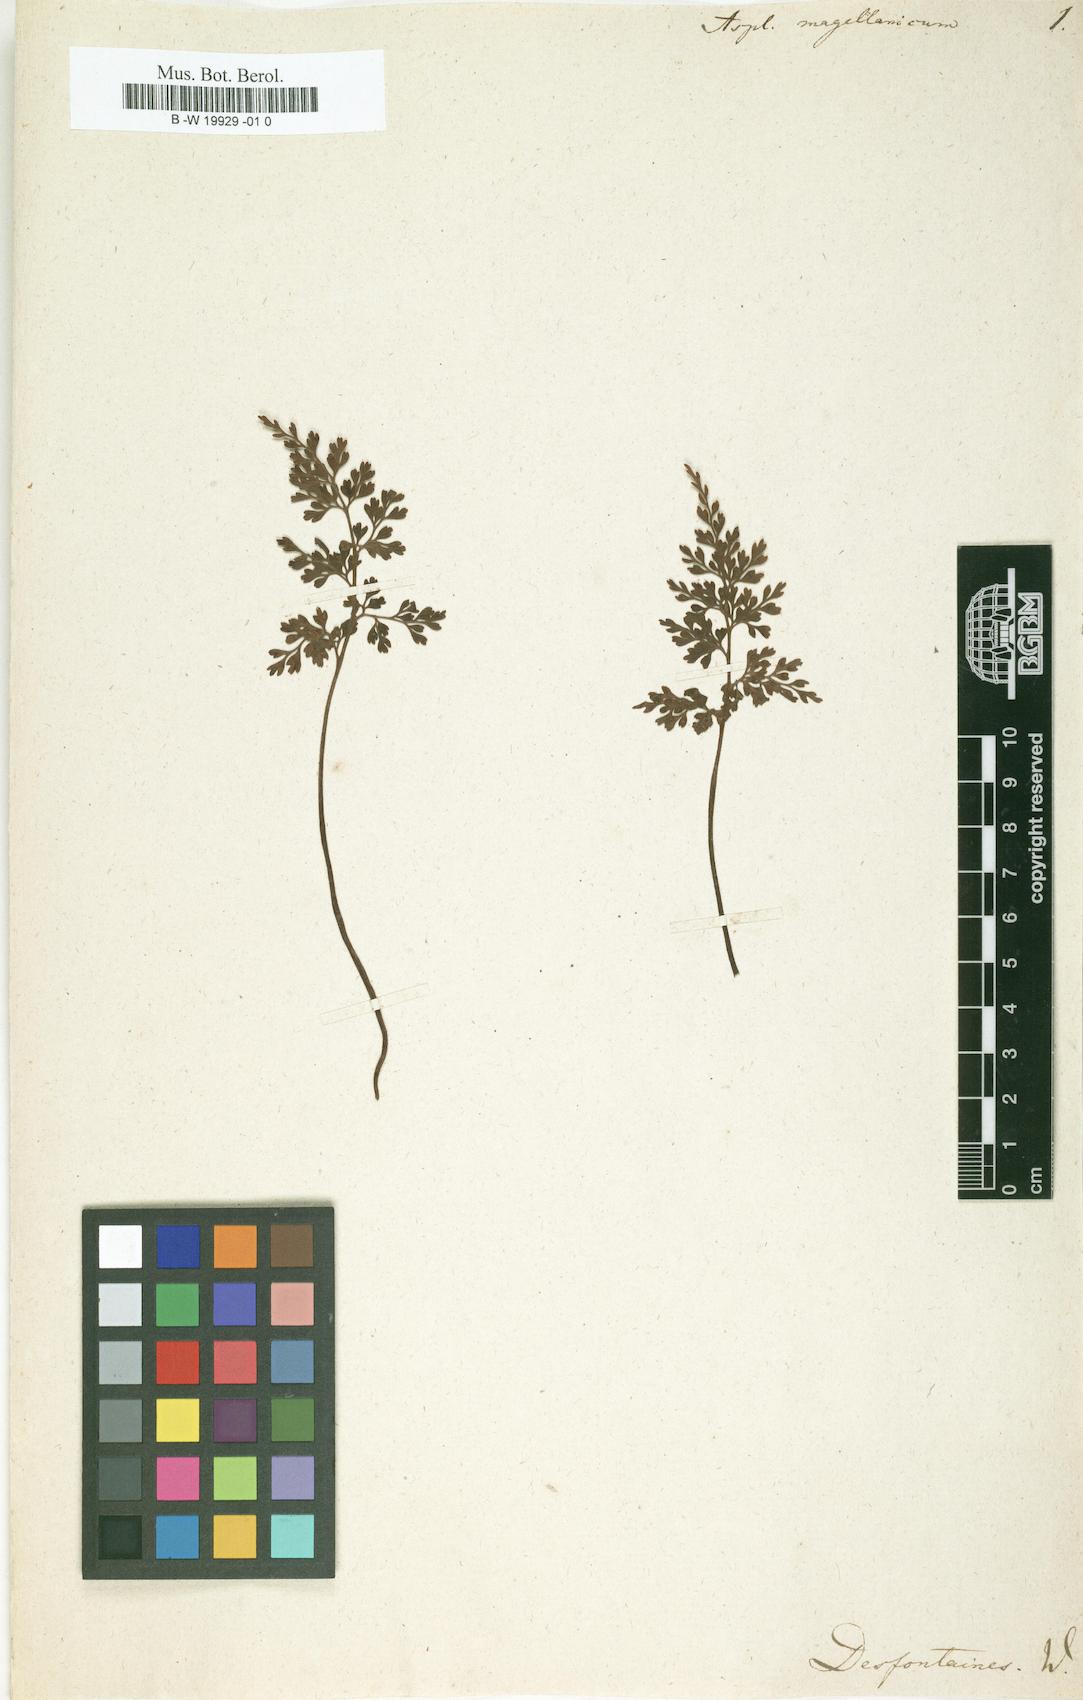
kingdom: Plantae
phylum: Tracheophyta
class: Polypodiopsida
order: Polypodiales
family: Aspleniaceae
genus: Asplenium
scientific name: Asplenium dareoides
